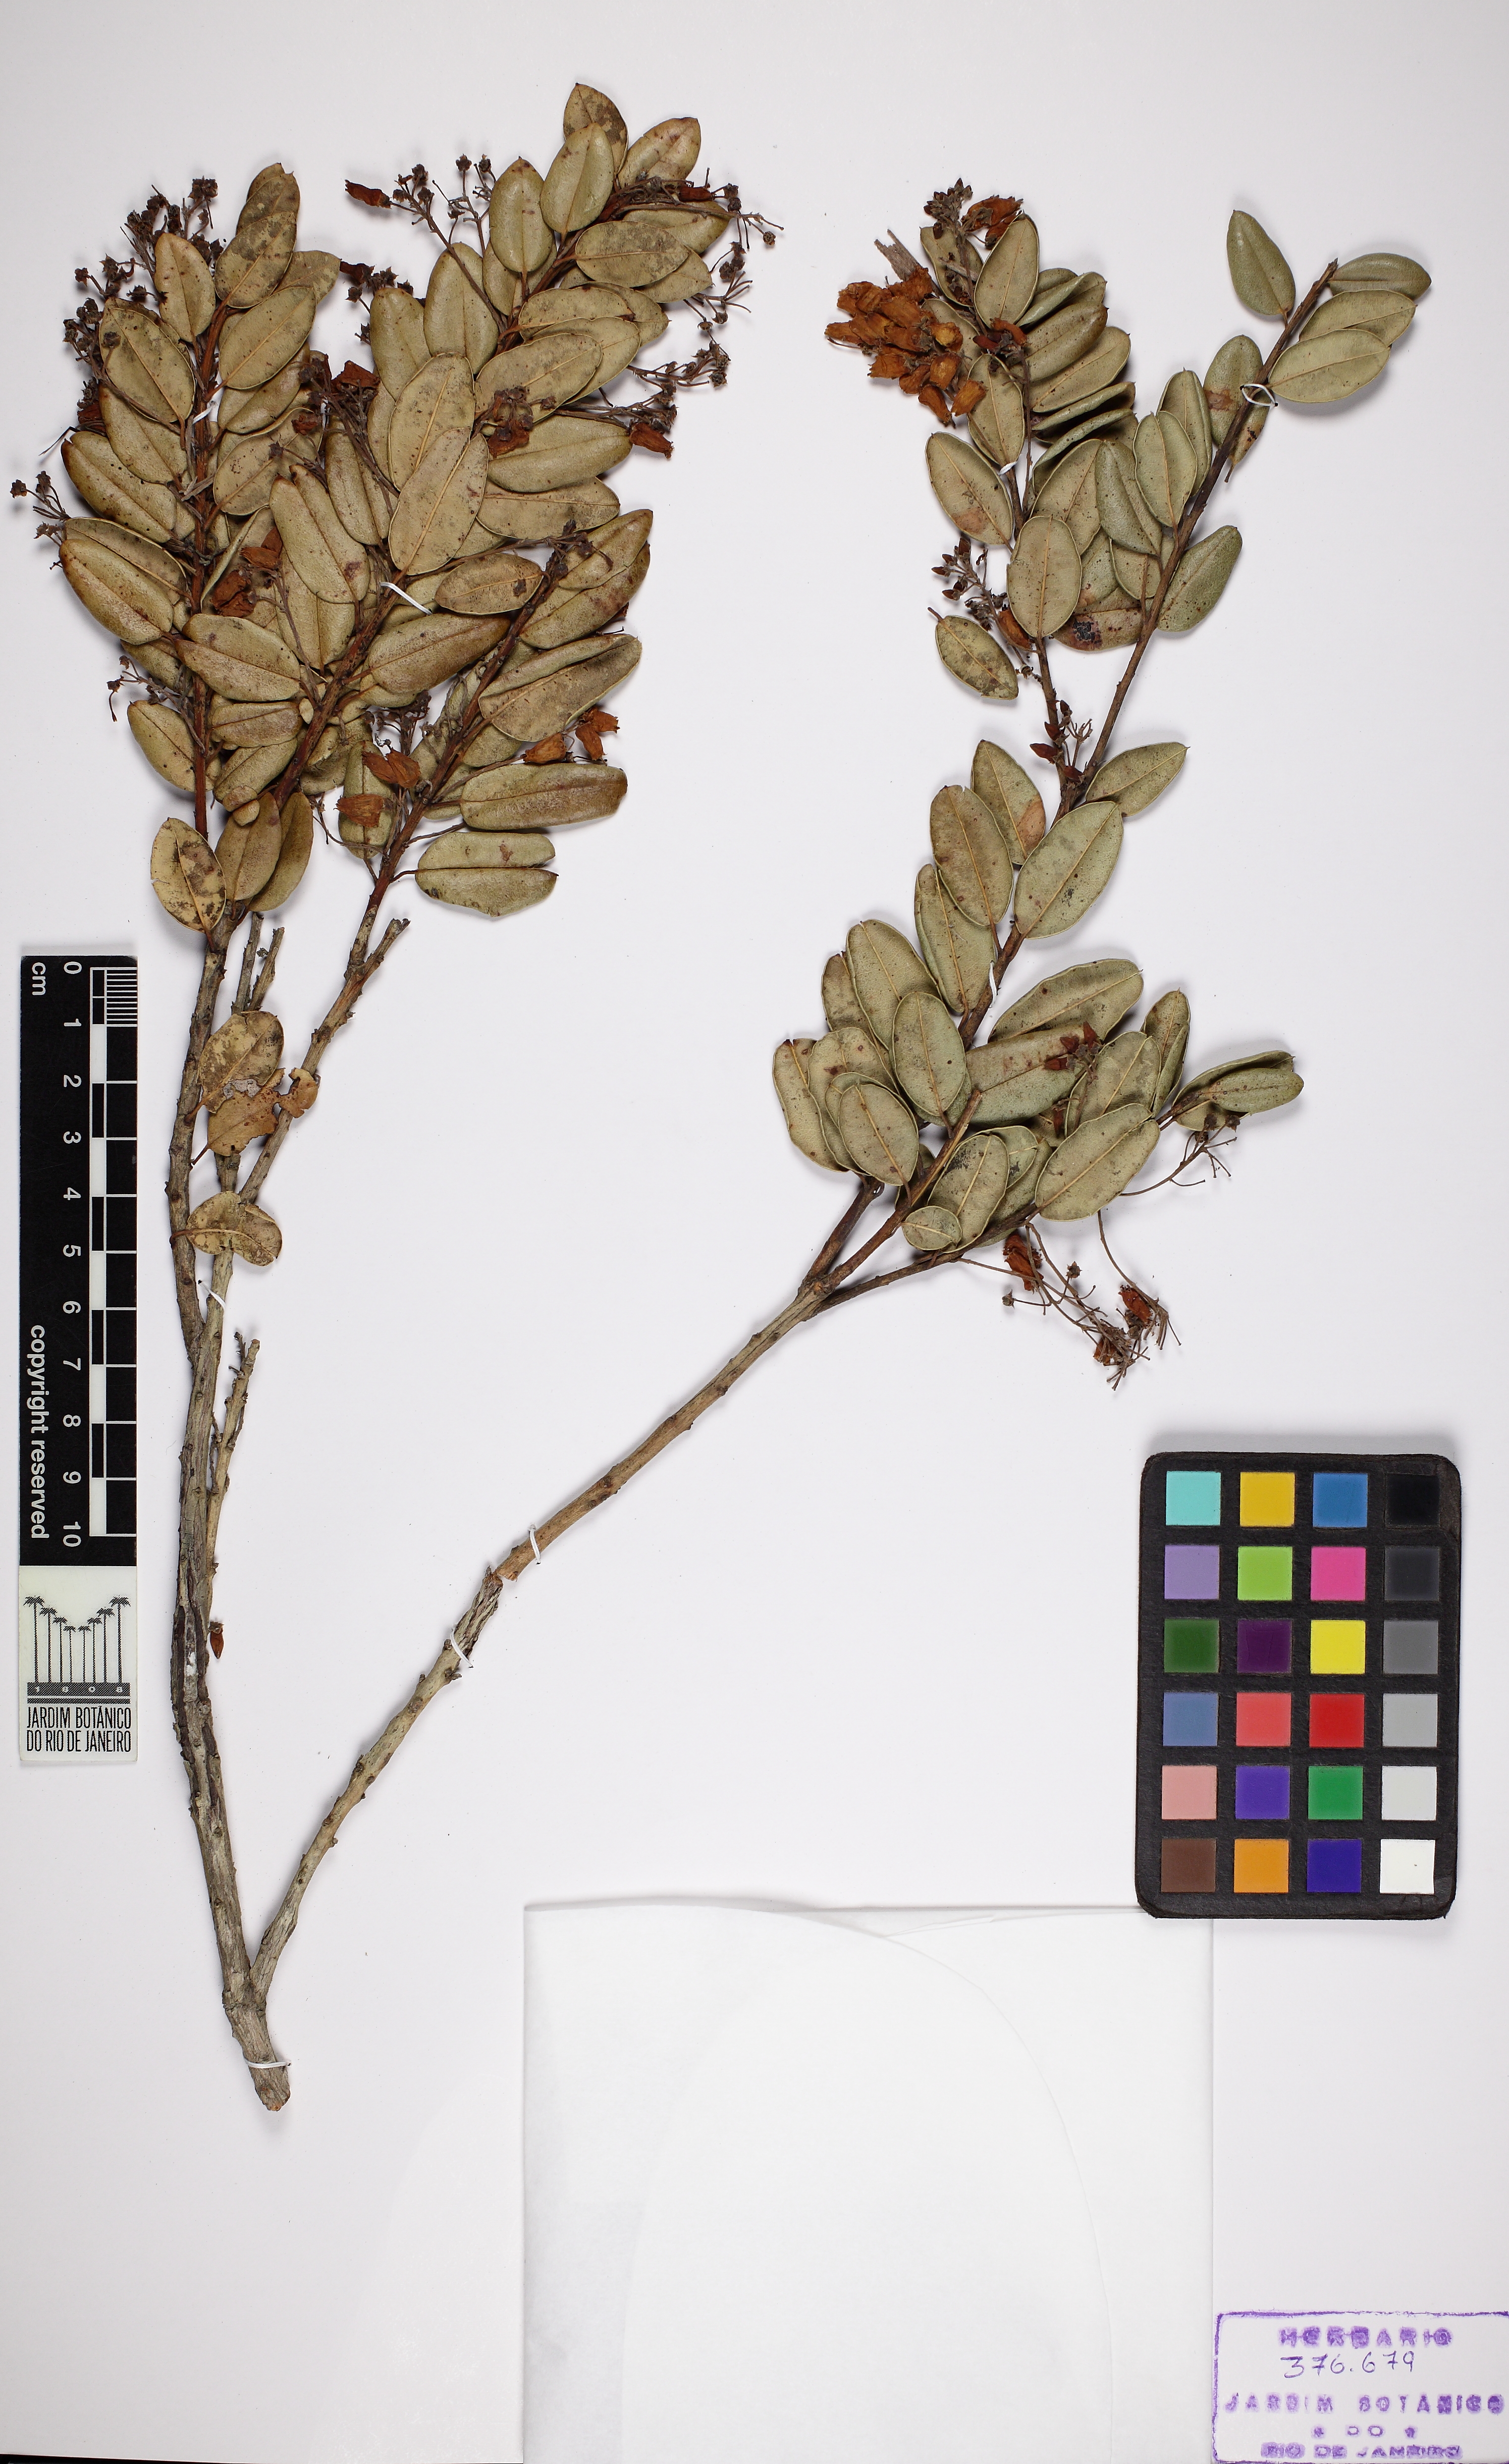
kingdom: Plantae
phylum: Tracheophyta
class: Magnoliopsida
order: Ericales
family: Ericaceae
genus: Agarista
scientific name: Agarista revoluta
